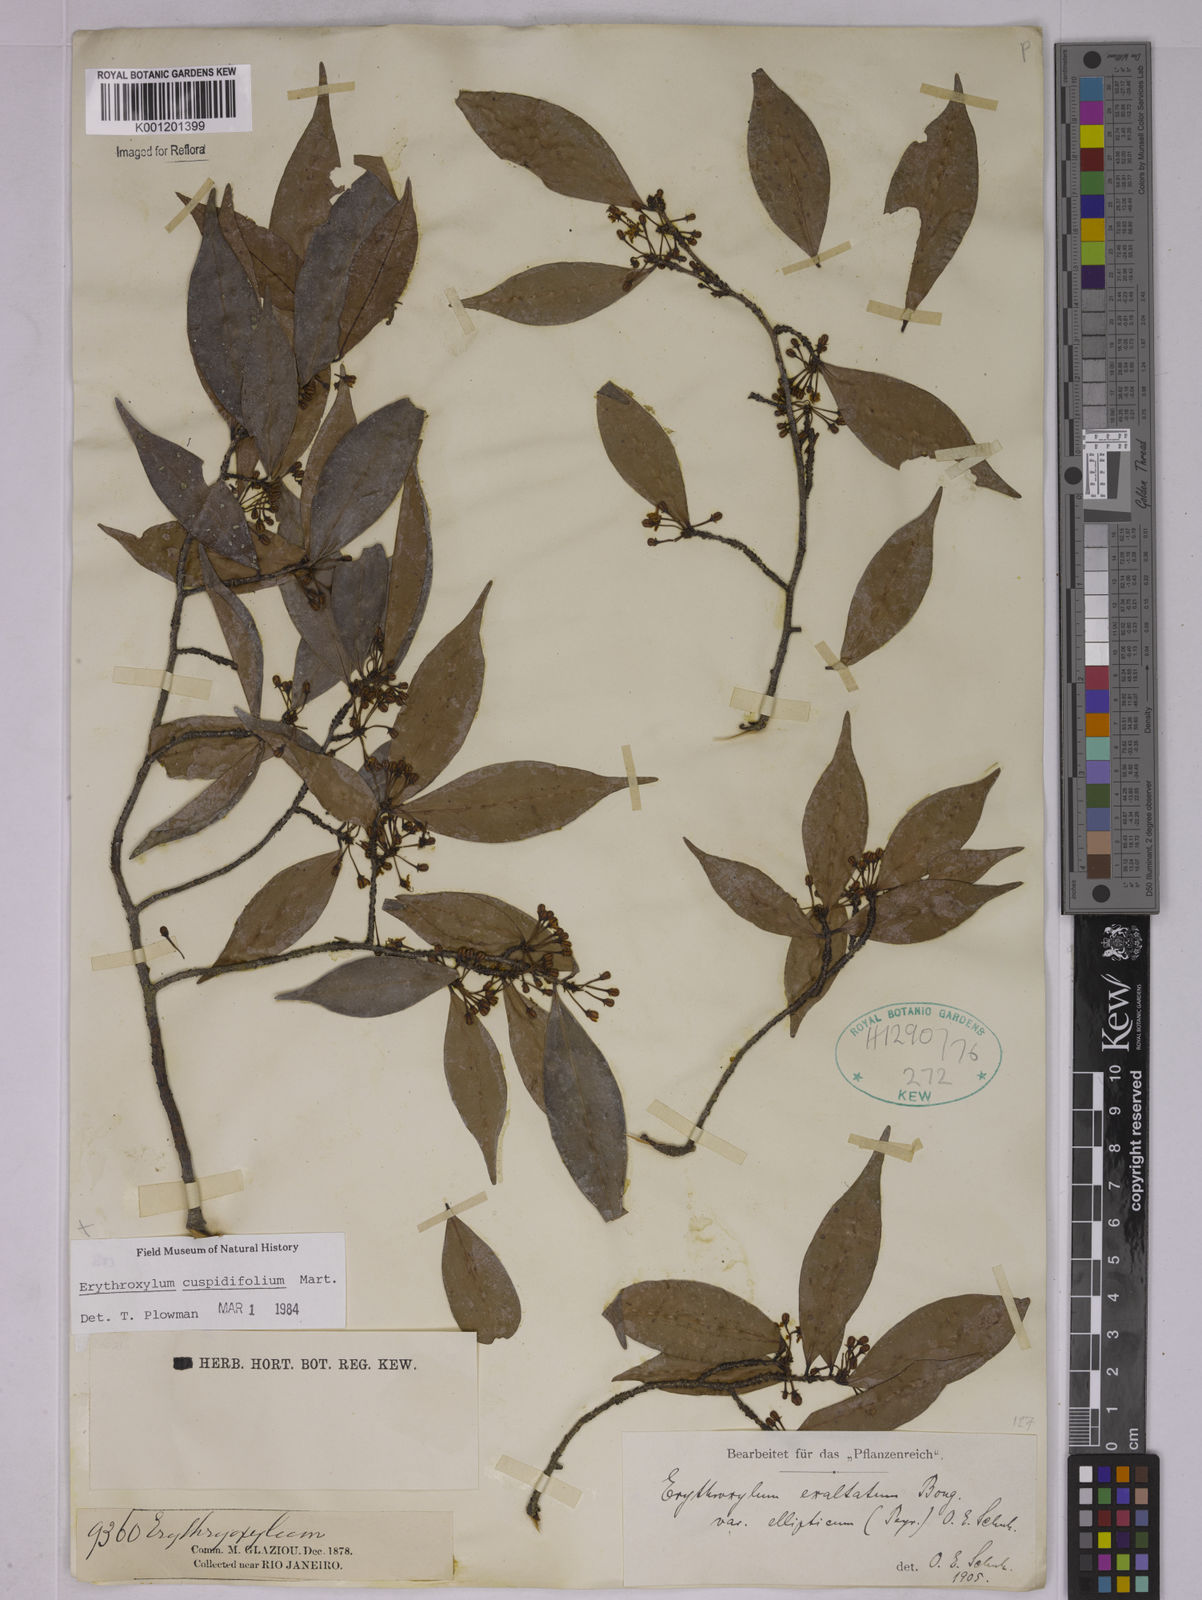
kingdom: Plantae
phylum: Tracheophyta
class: Magnoliopsida
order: Malpighiales
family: Erythroxylaceae
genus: Erythroxylum
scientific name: Erythroxylum cuspidifolium
